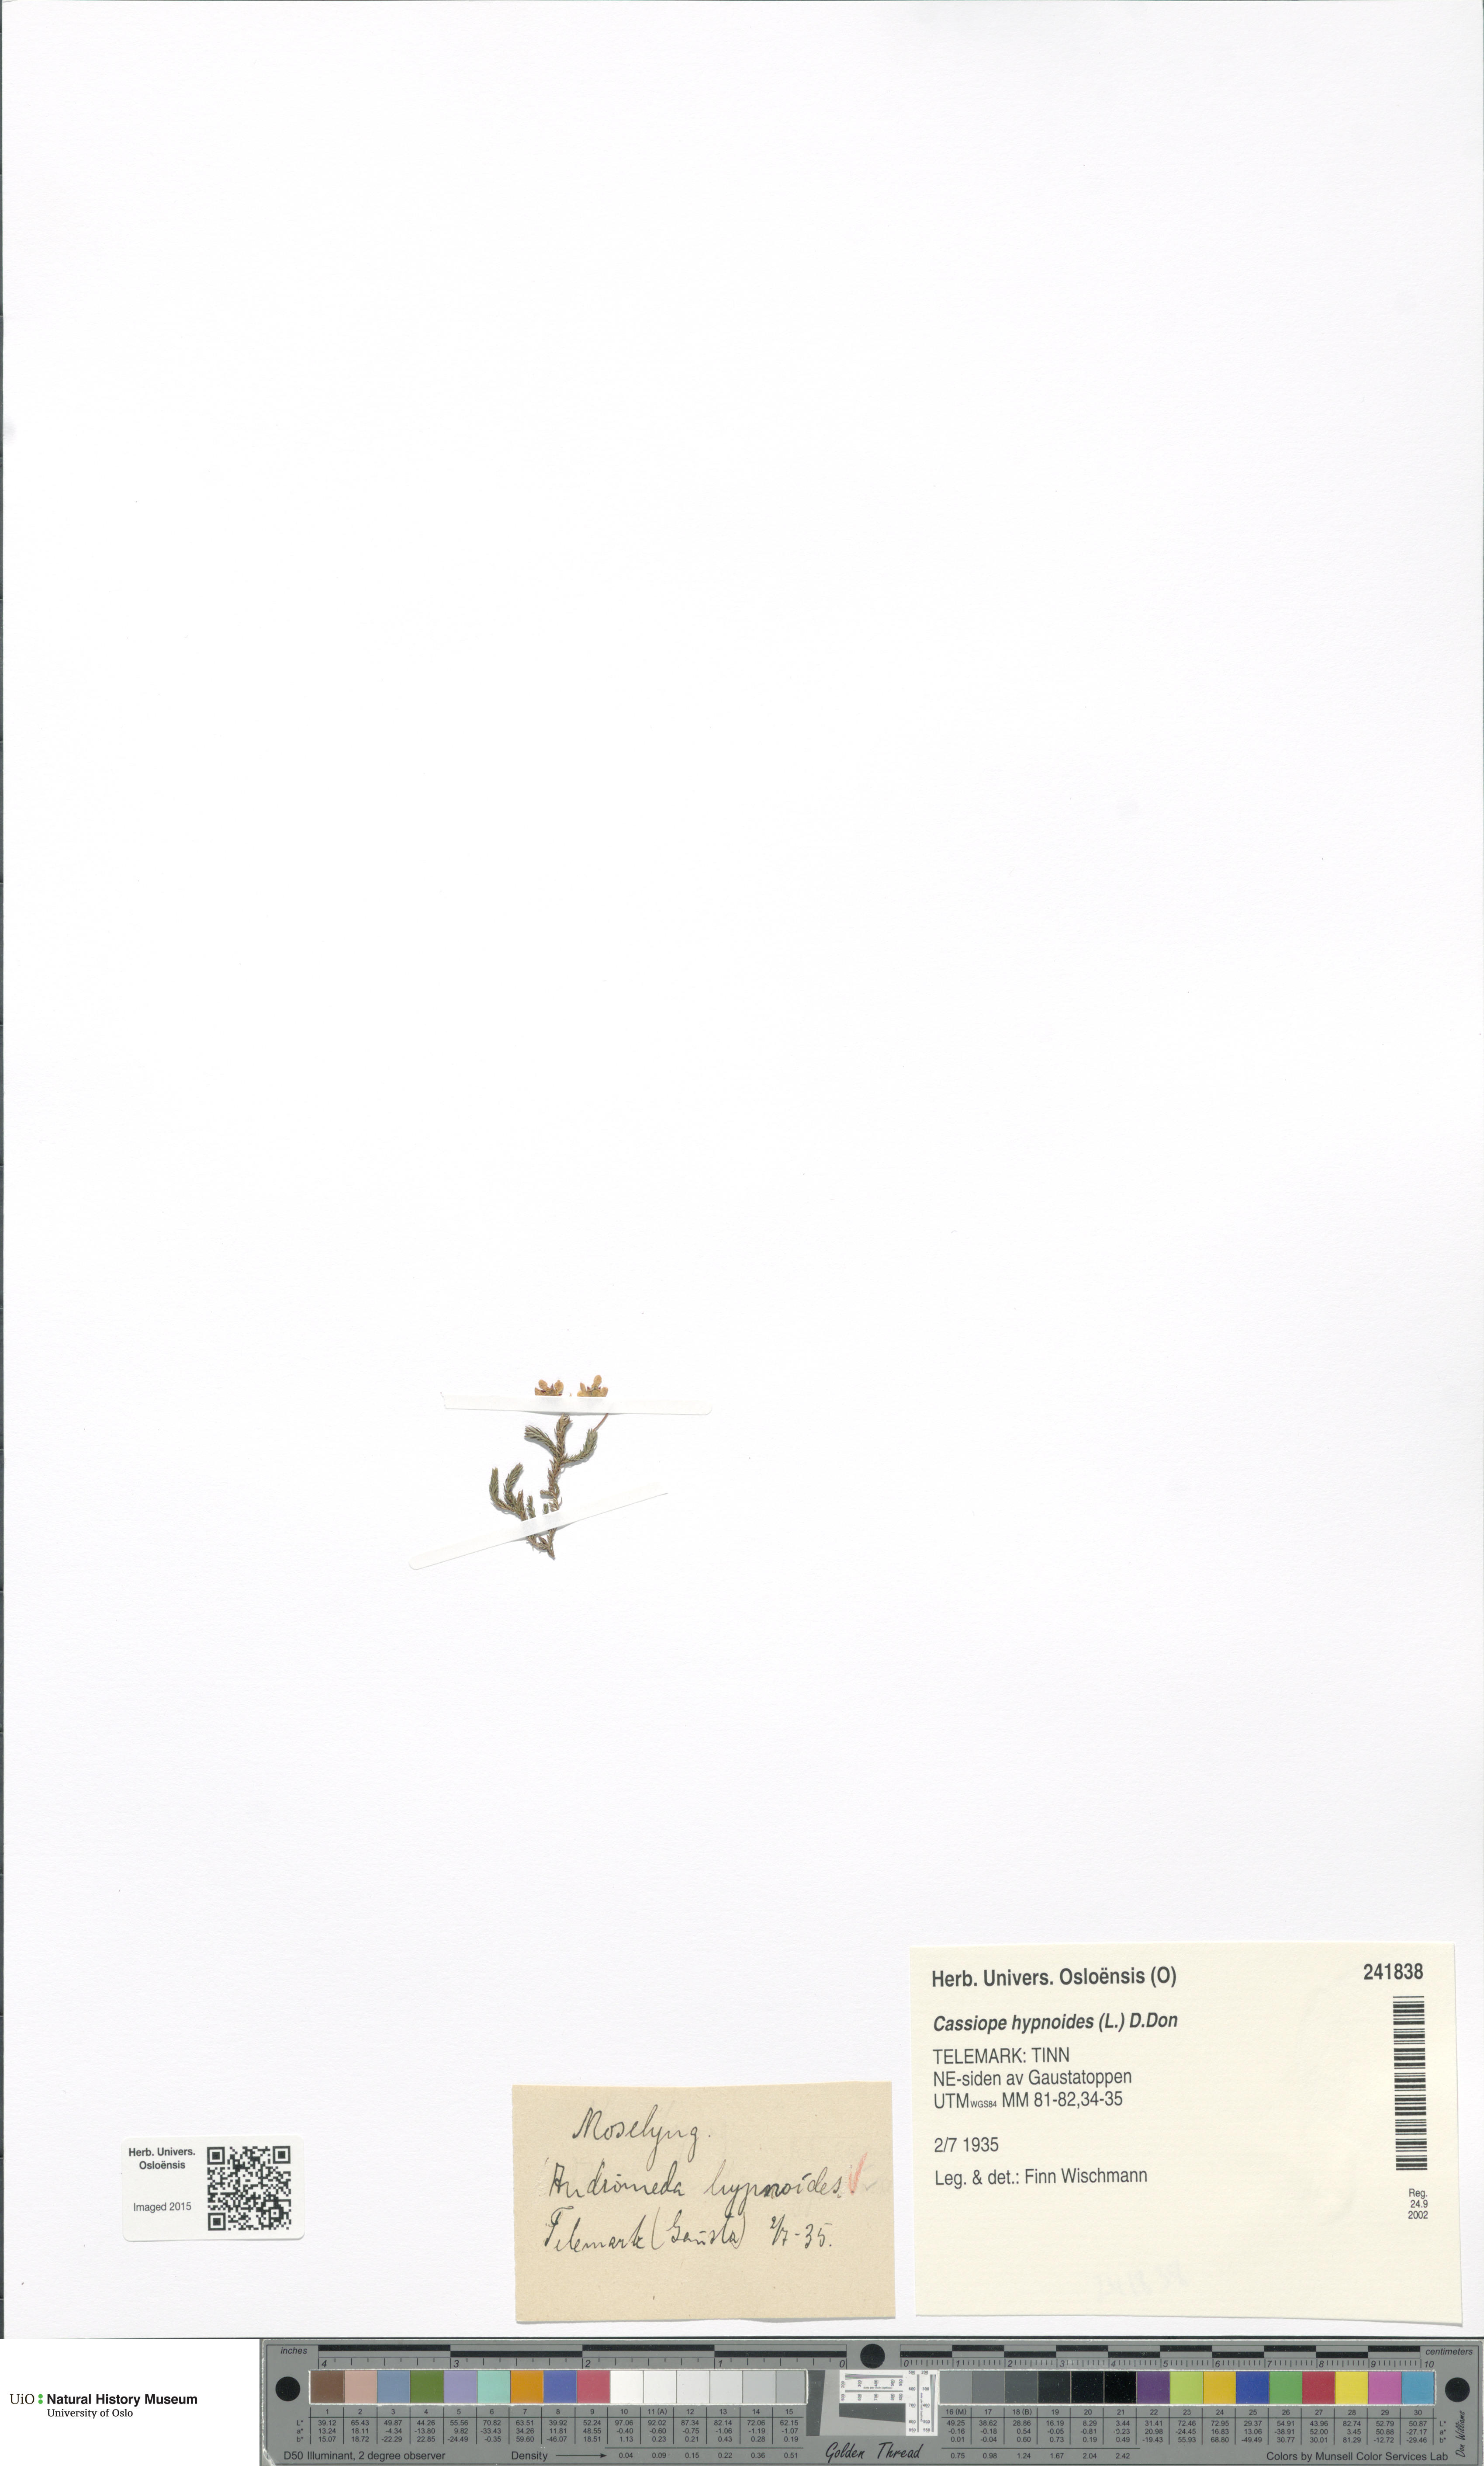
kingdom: Plantae
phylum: Tracheophyta
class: Magnoliopsida
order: Ericales
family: Ericaceae
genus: Harrimanella
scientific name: Harrimanella hypnoides
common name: Moss bell heather
